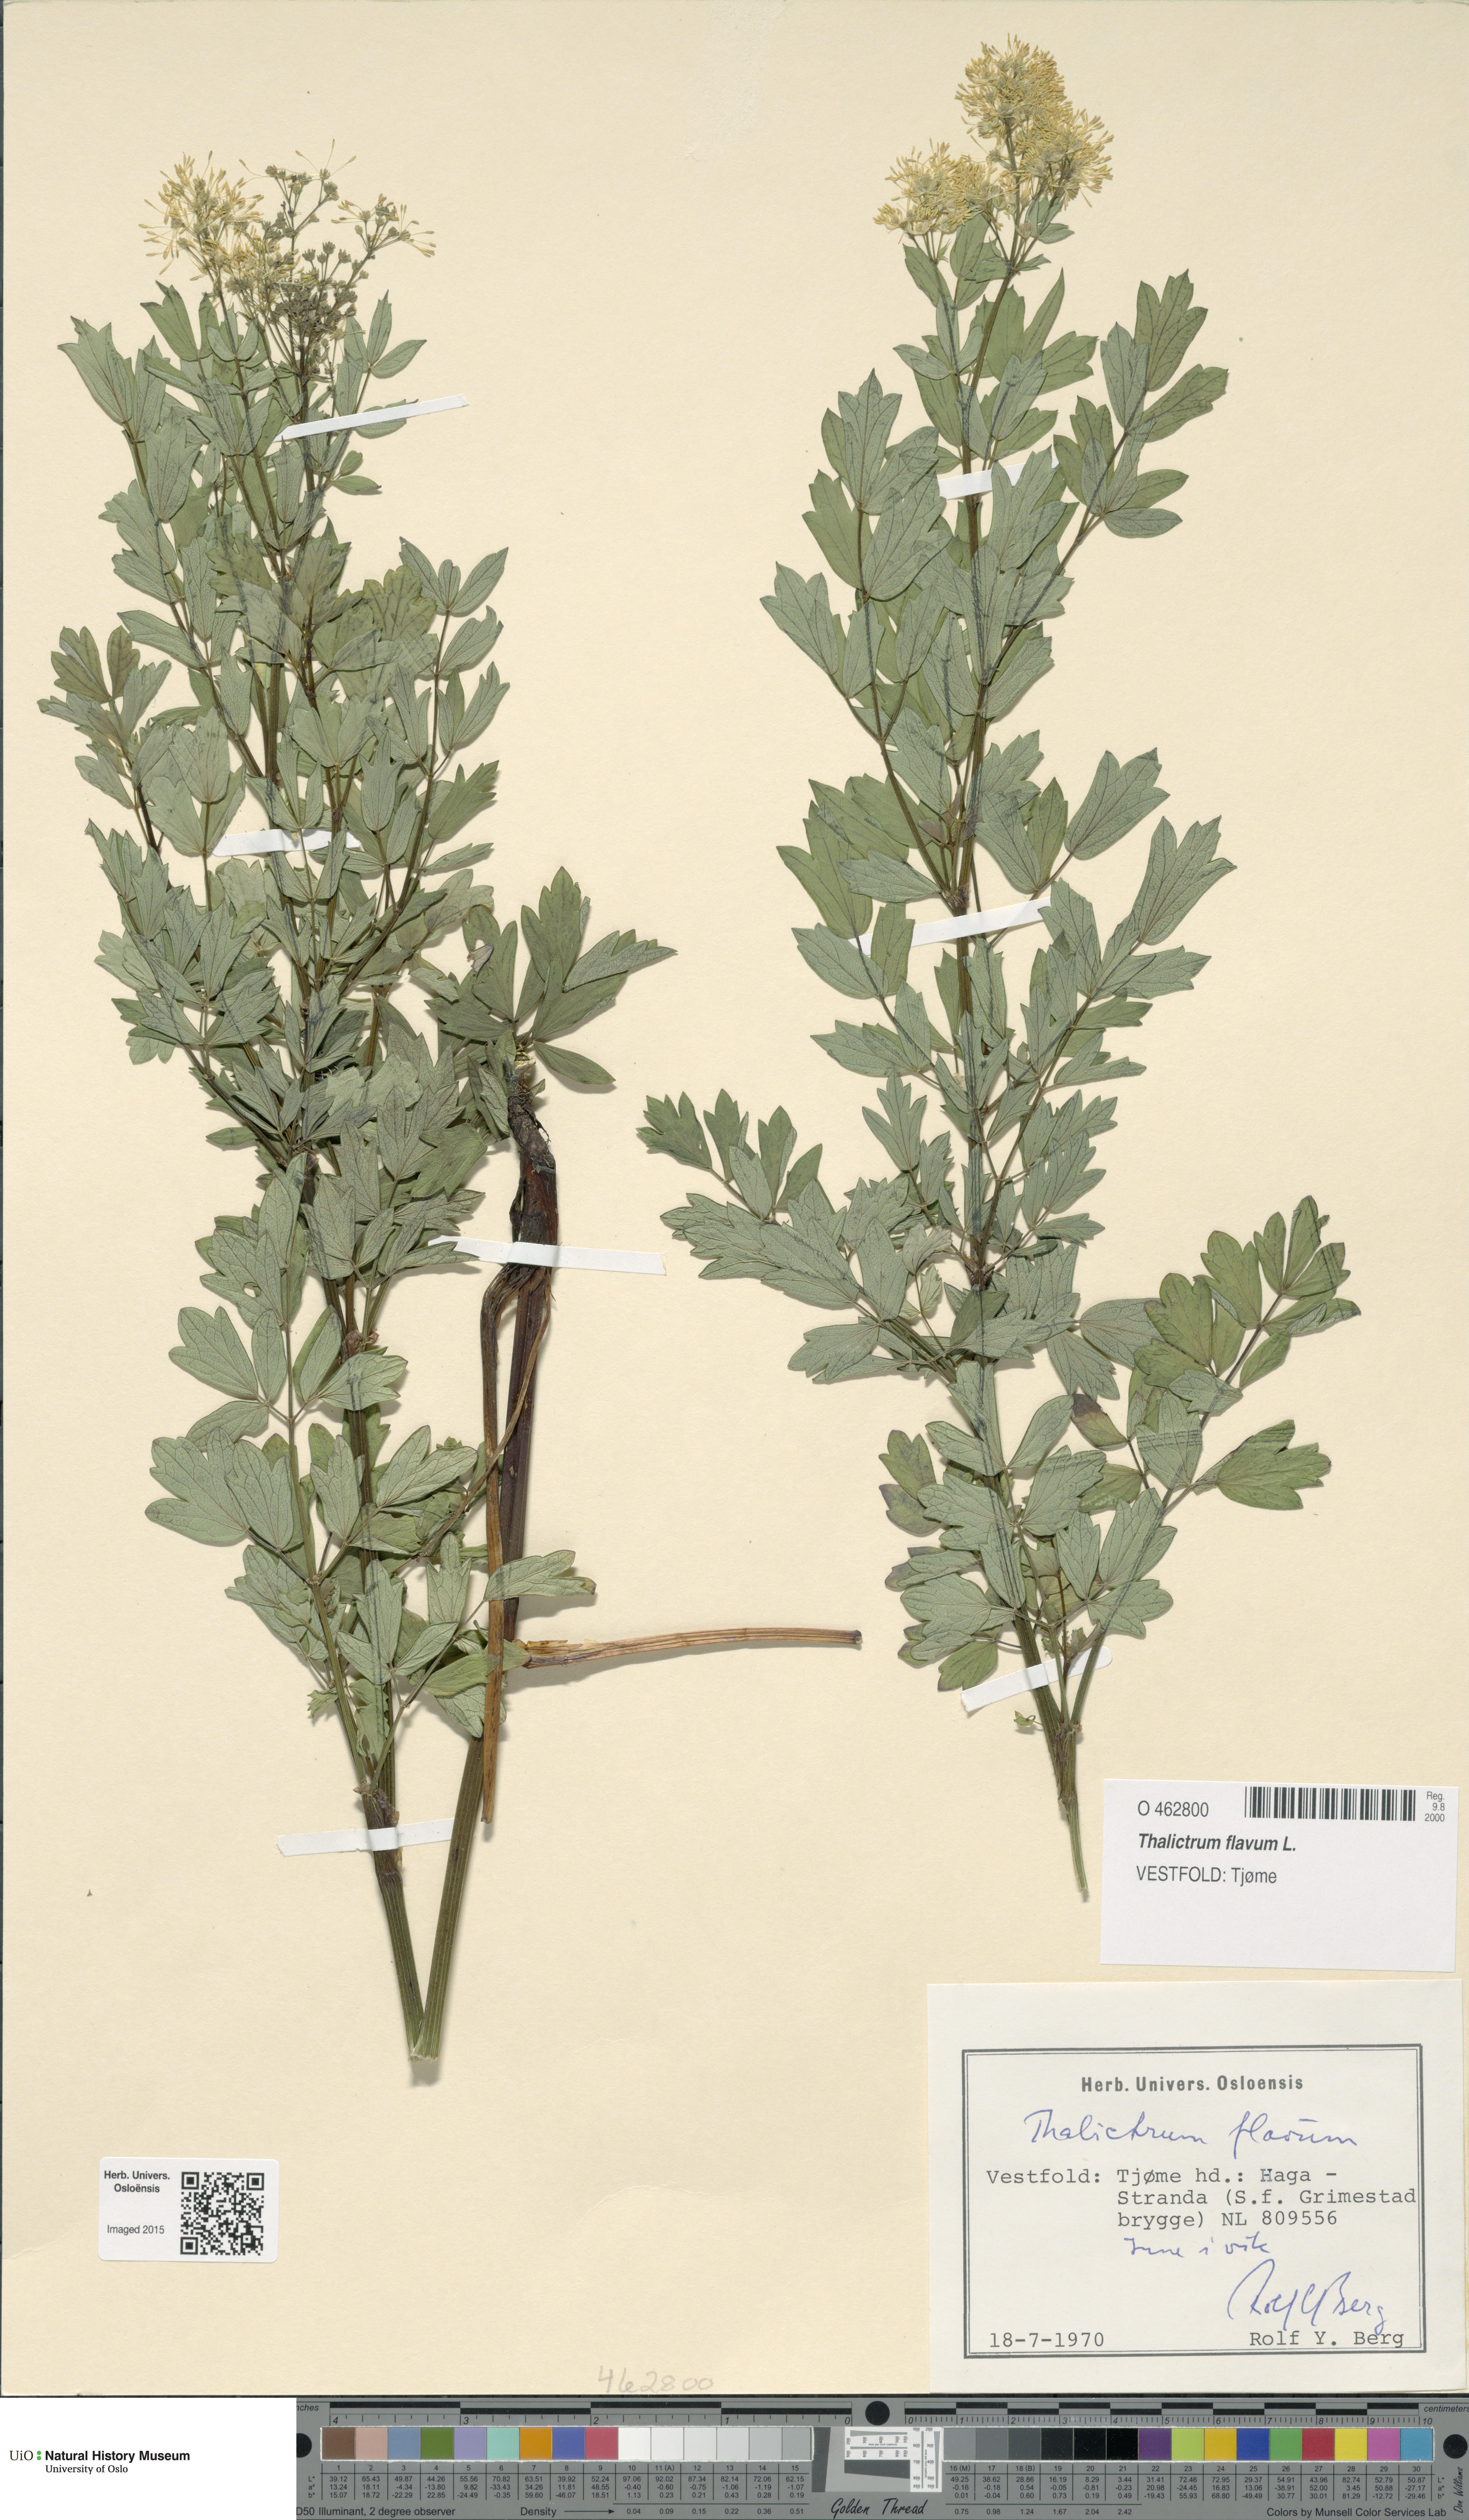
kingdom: Plantae
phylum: Tracheophyta
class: Magnoliopsida
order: Ranunculales
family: Ranunculaceae
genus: Thalictrum
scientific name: Thalictrum flavum
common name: Common meadow-rue
